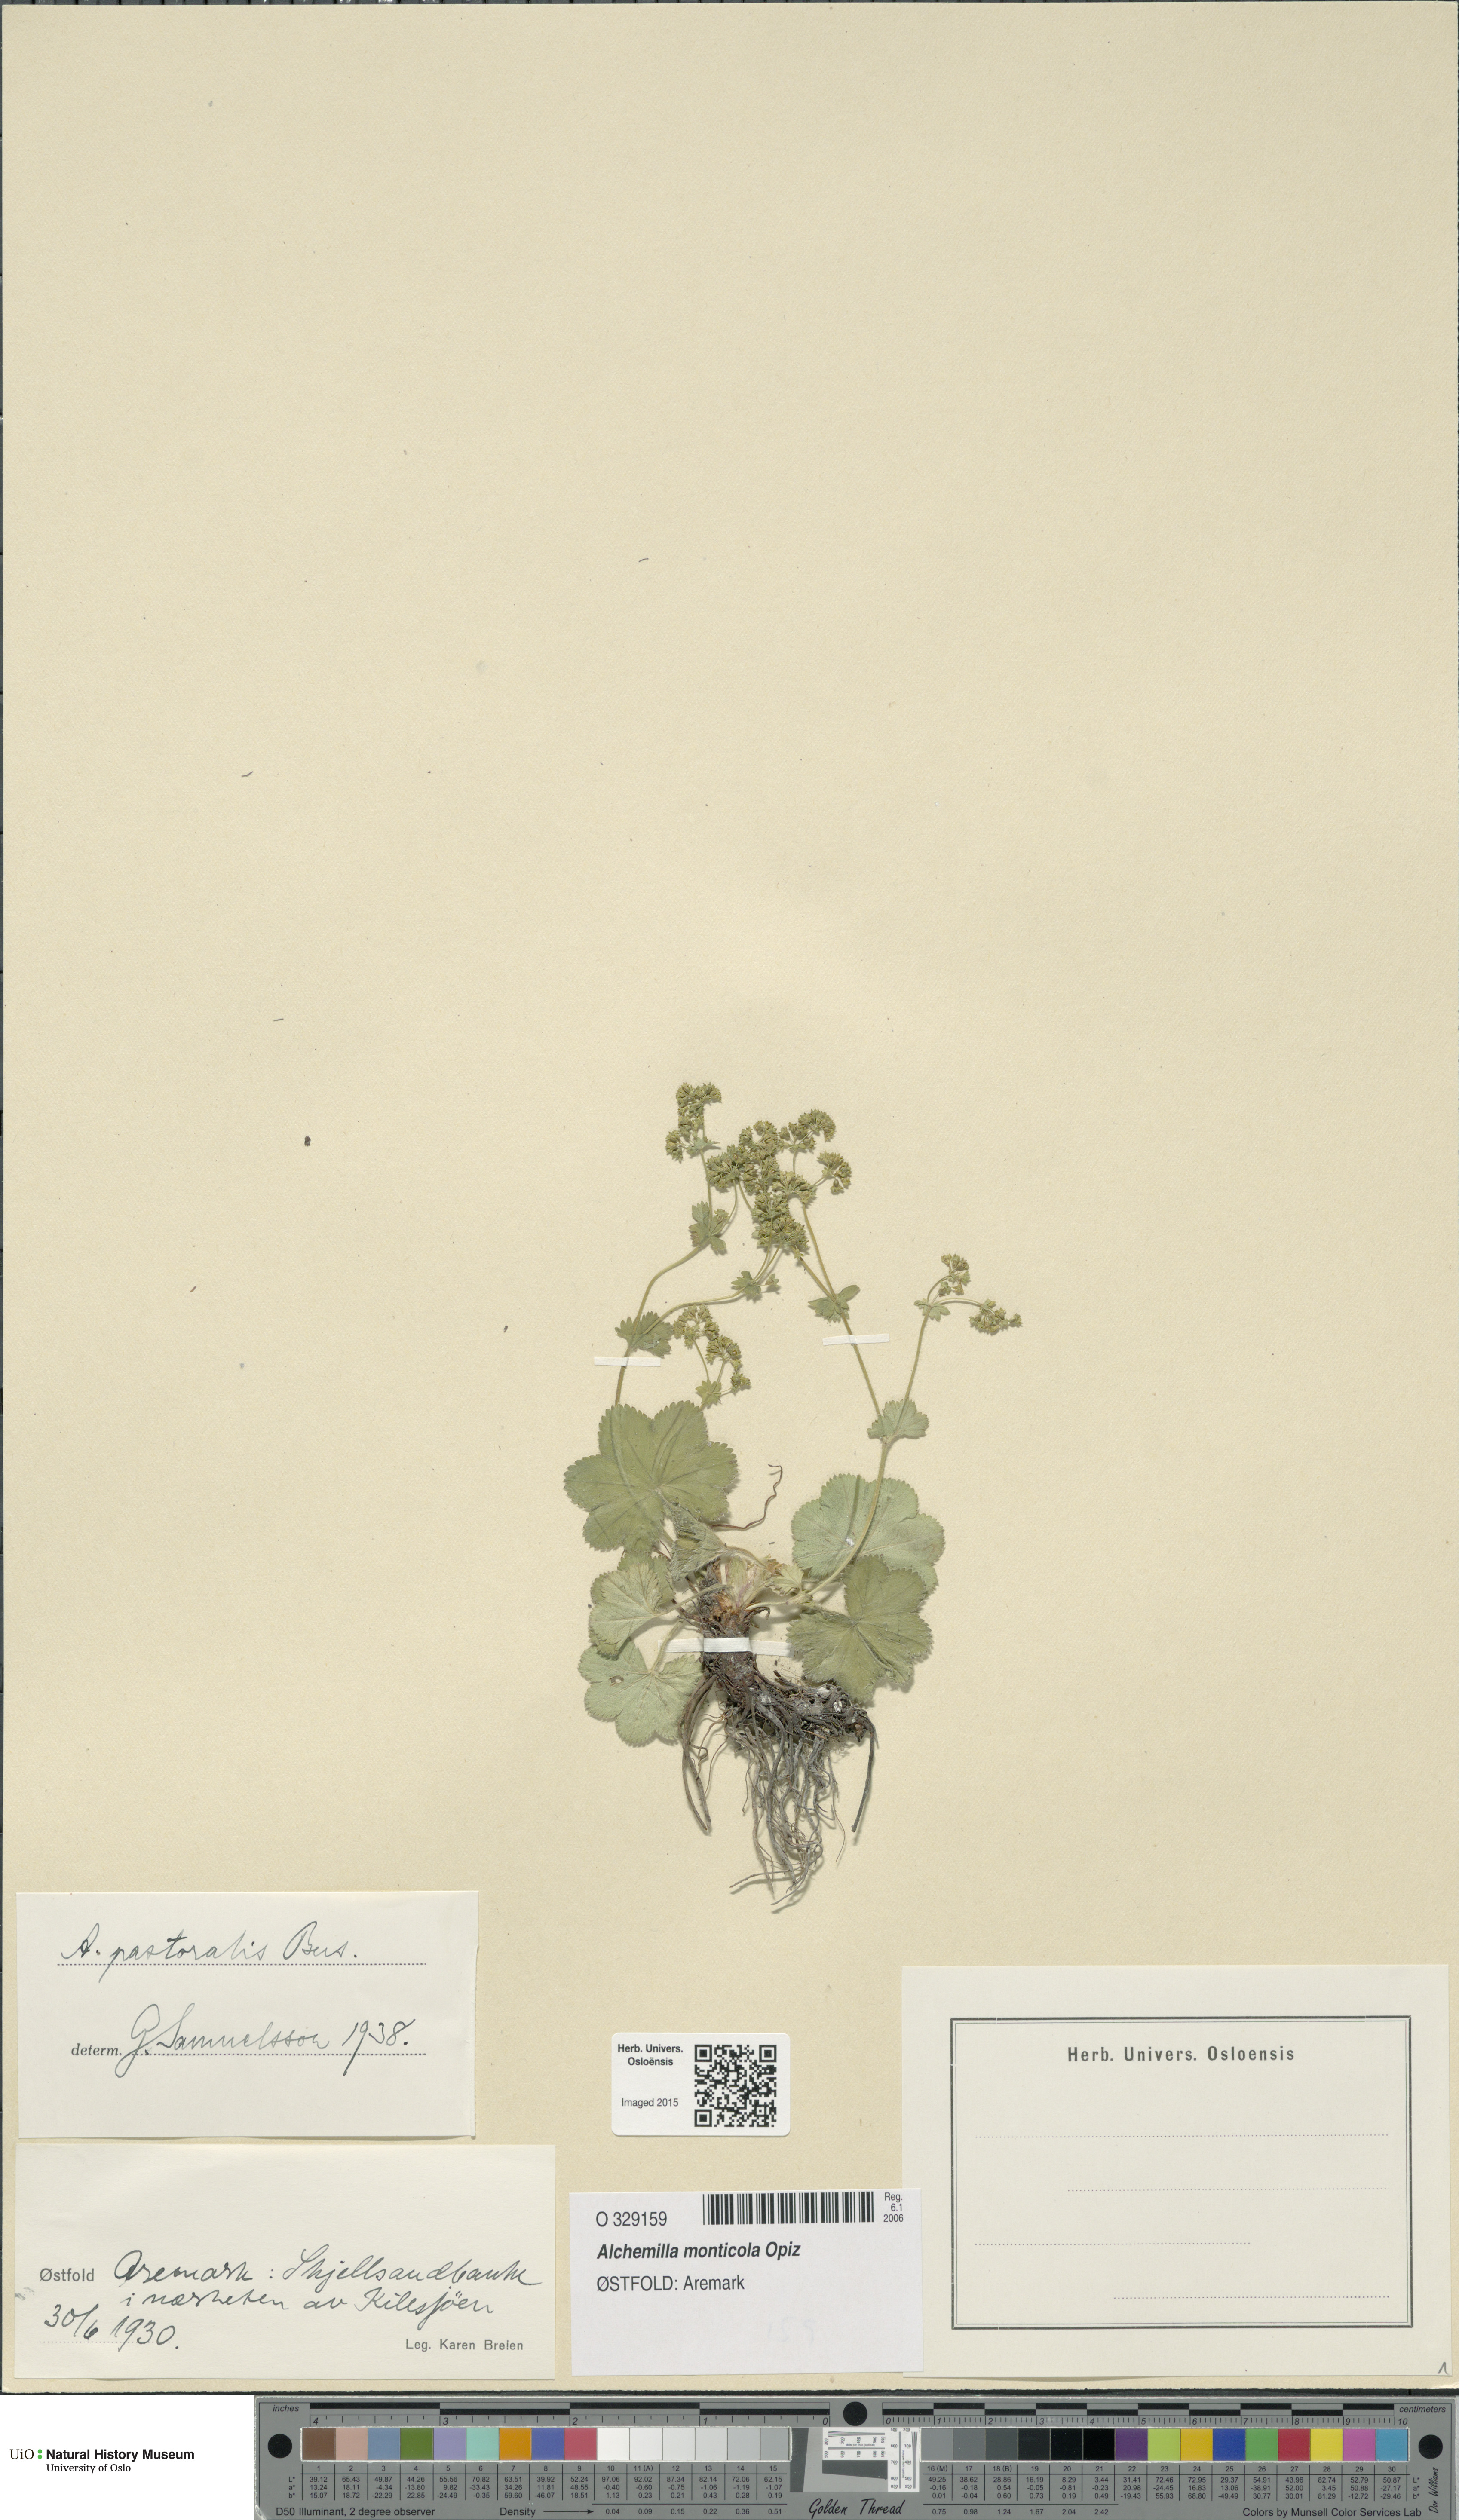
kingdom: Plantae
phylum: Tracheophyta
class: Magnoliopsida
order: Rosales
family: Rosaceae
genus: Alchemilla
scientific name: Alchemilla monticola
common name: Hairy lady's mantle
